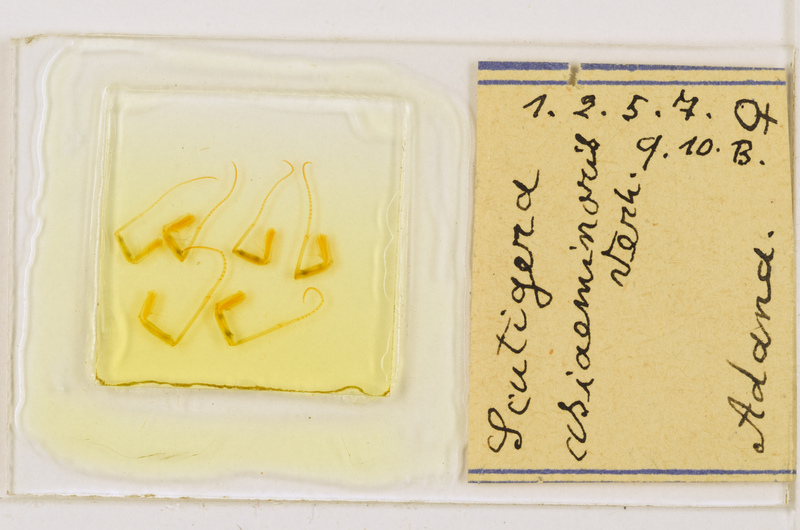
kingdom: Animalia
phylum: Arthropoda
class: Chilopoda
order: Scutigeromorpha
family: Scutigeridae
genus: Scutigera
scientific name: Scutigera coleoptrata
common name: House centipede
